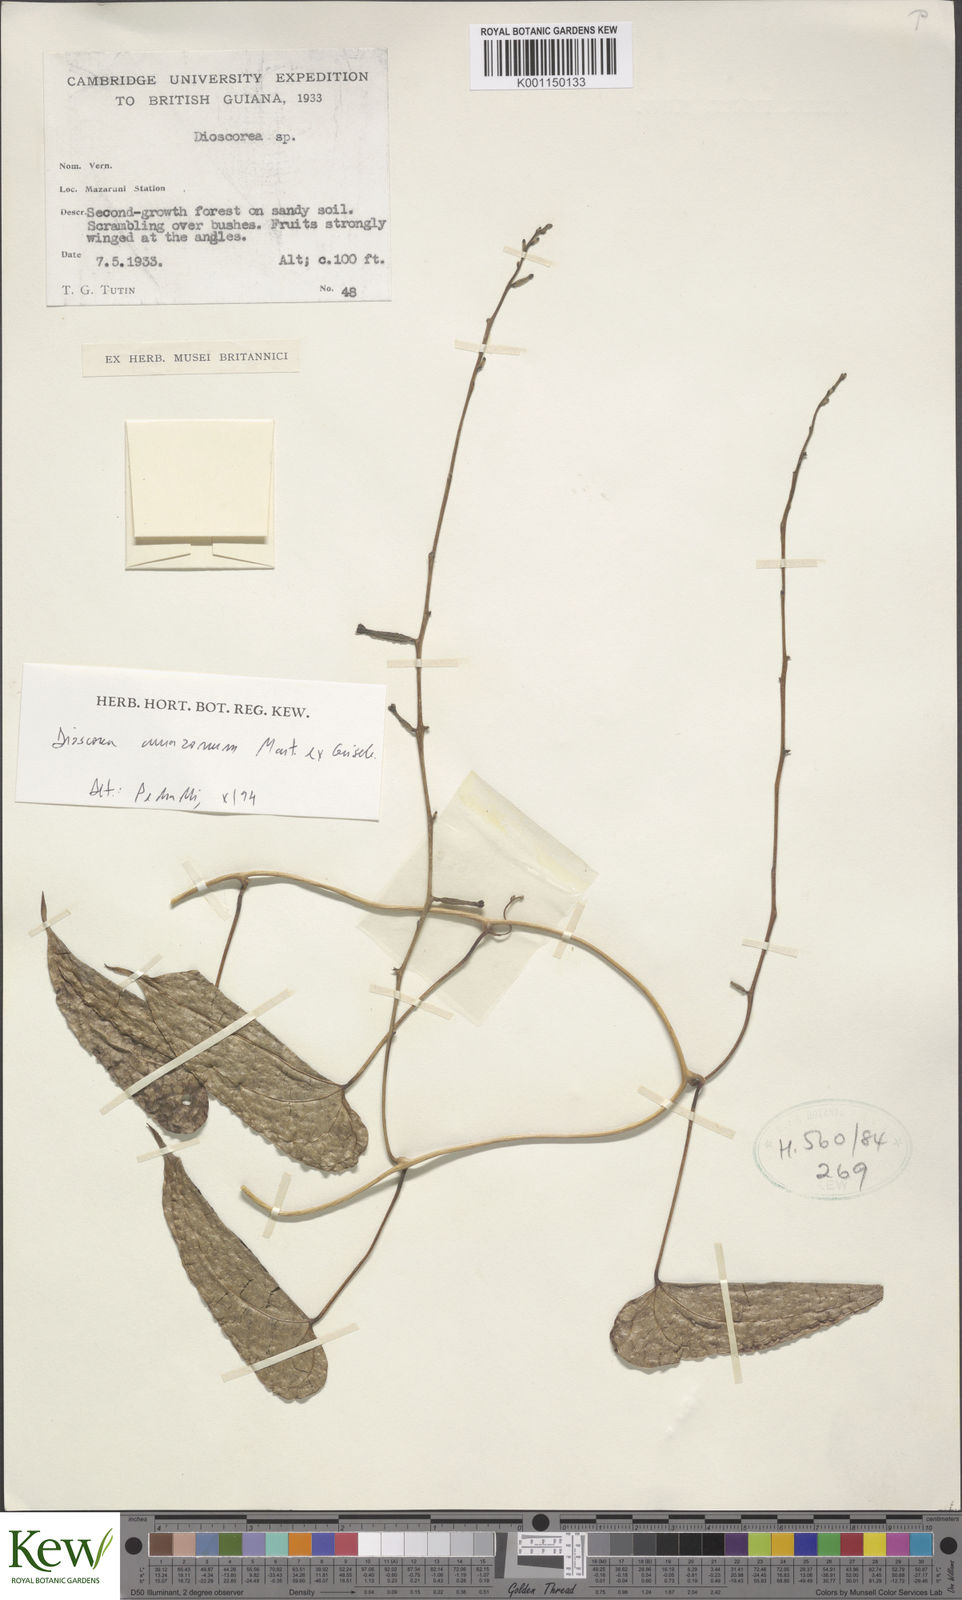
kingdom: Plantae
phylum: Tracheophyta
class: Liliopsida
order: Dioscoreales
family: Dioscoreaceae
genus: Dioscorea
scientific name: Dioscorea trichanthera
